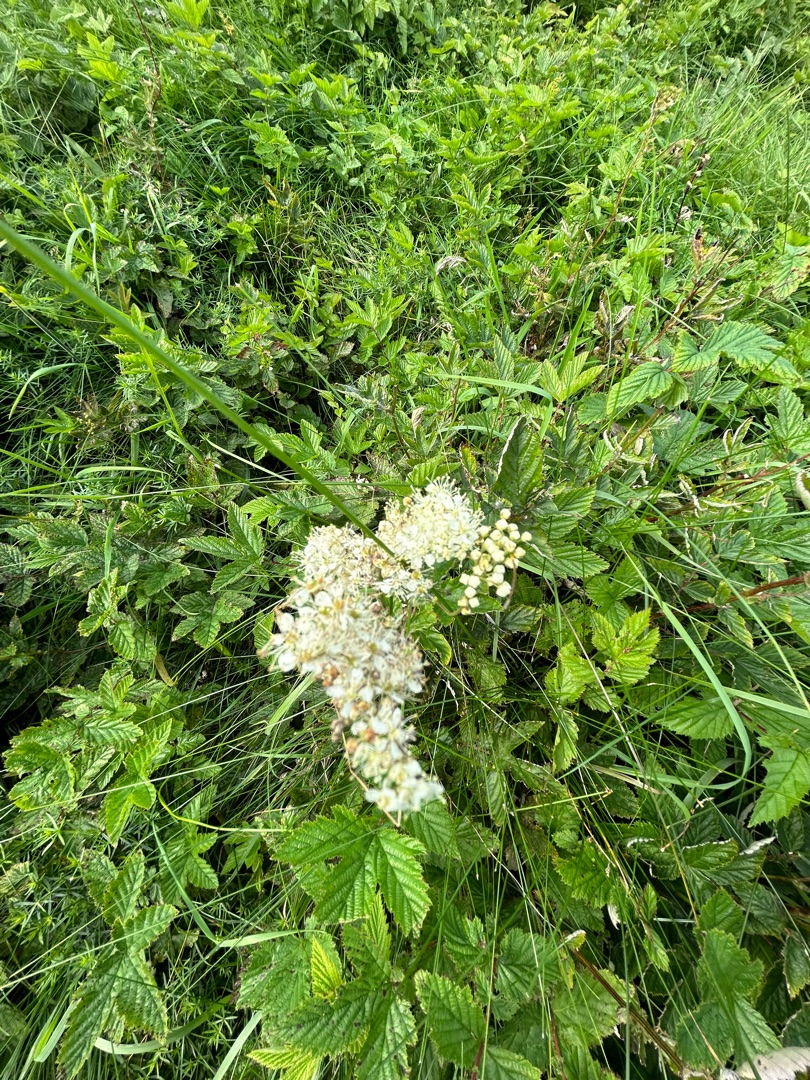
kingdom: Plantae
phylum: Tracheophyta
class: Magnoliopsida
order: Rosales
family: Rosaceae
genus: Filipendula
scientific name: Filipendula ulmaria
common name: Almindelig mjødurt
